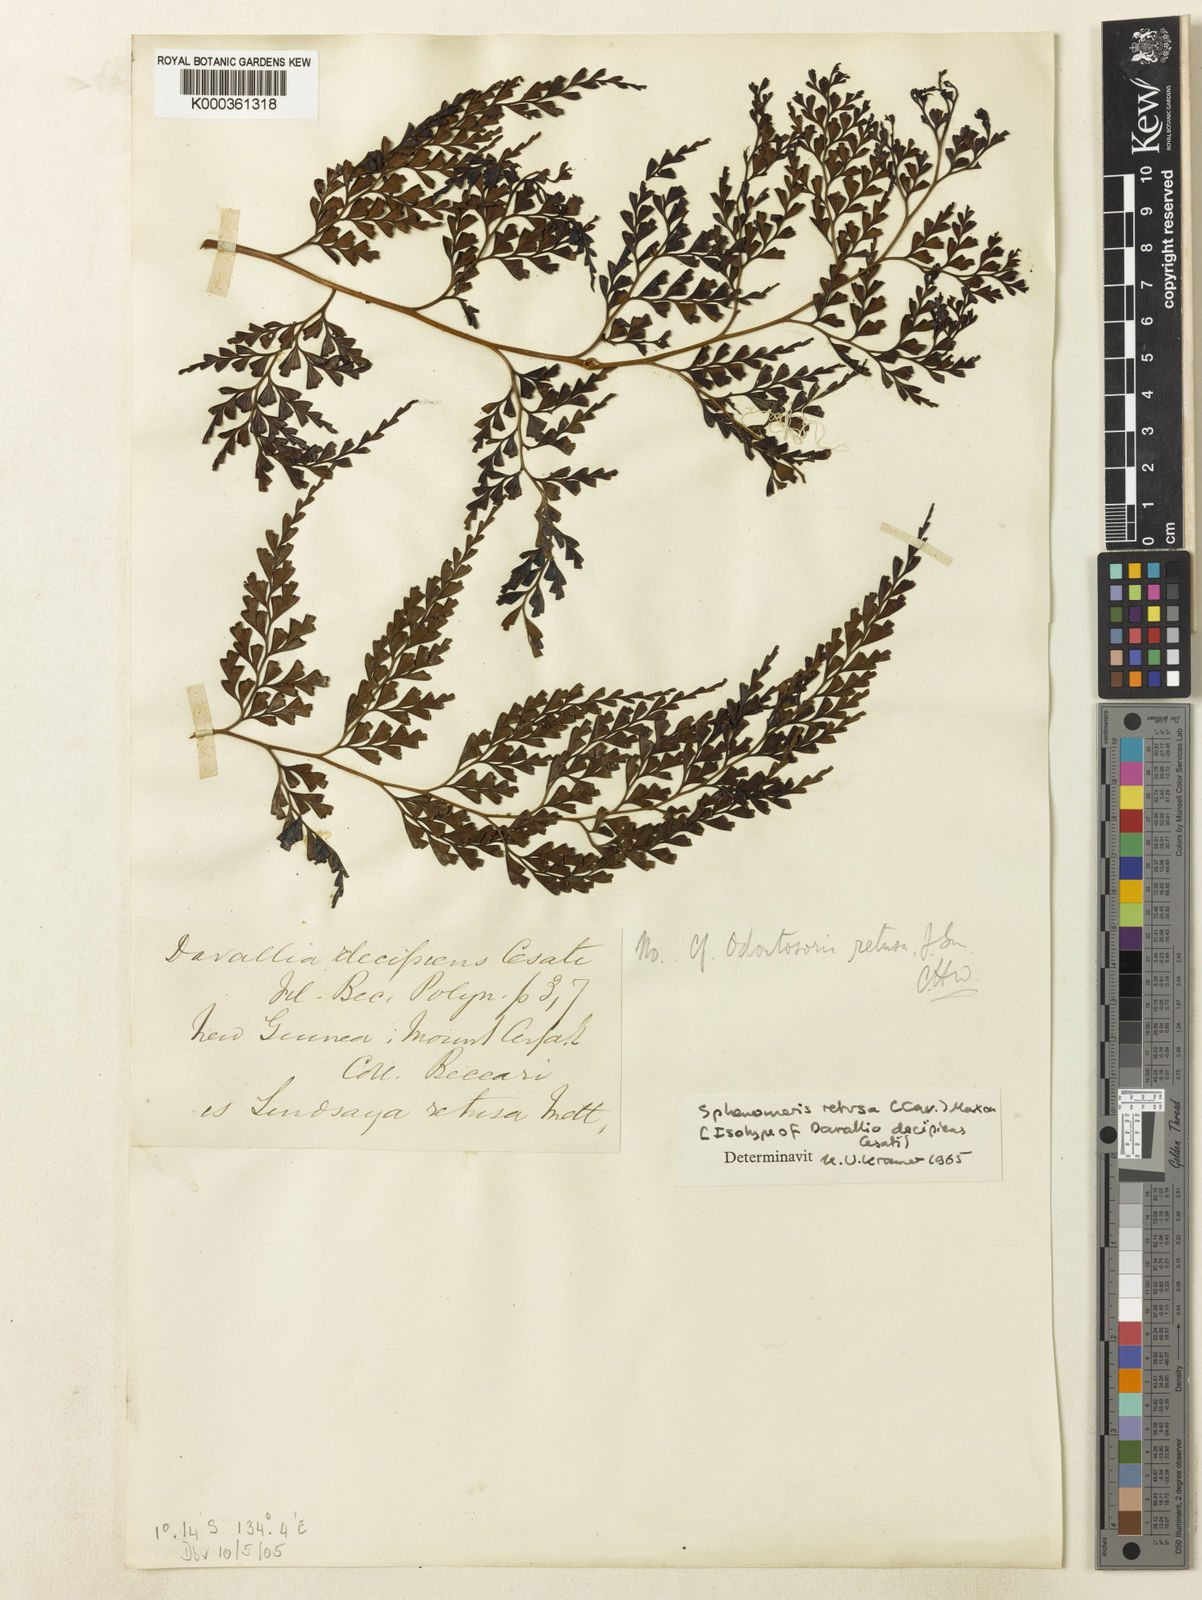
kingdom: Plantae
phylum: Tracheophyta
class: Polypodiopsida
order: Polypodiales
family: Lindsaeaceae
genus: Odontosoria
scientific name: Odontosoria retusa
